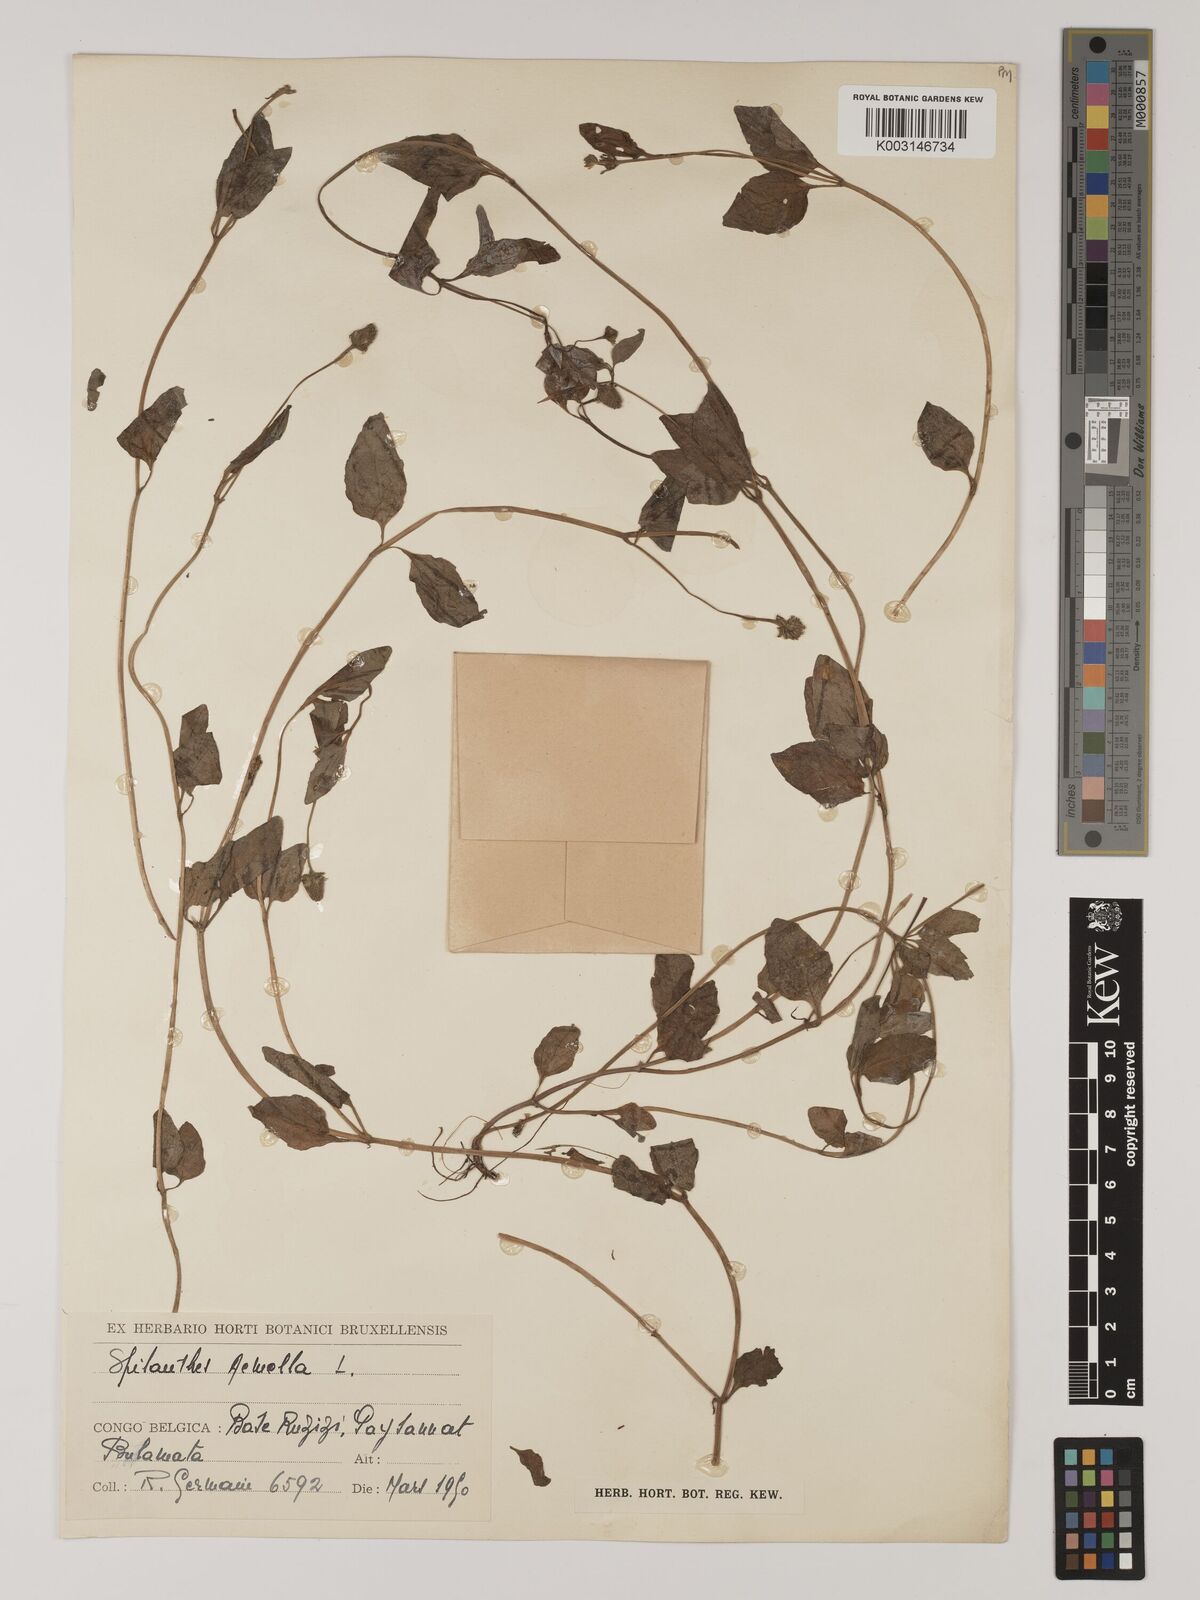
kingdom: Plantae
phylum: Tracheophyta
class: Magnoliopsida
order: Asterales
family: Asteraceae
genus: Blainvillea
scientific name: Blainvillea acmella
